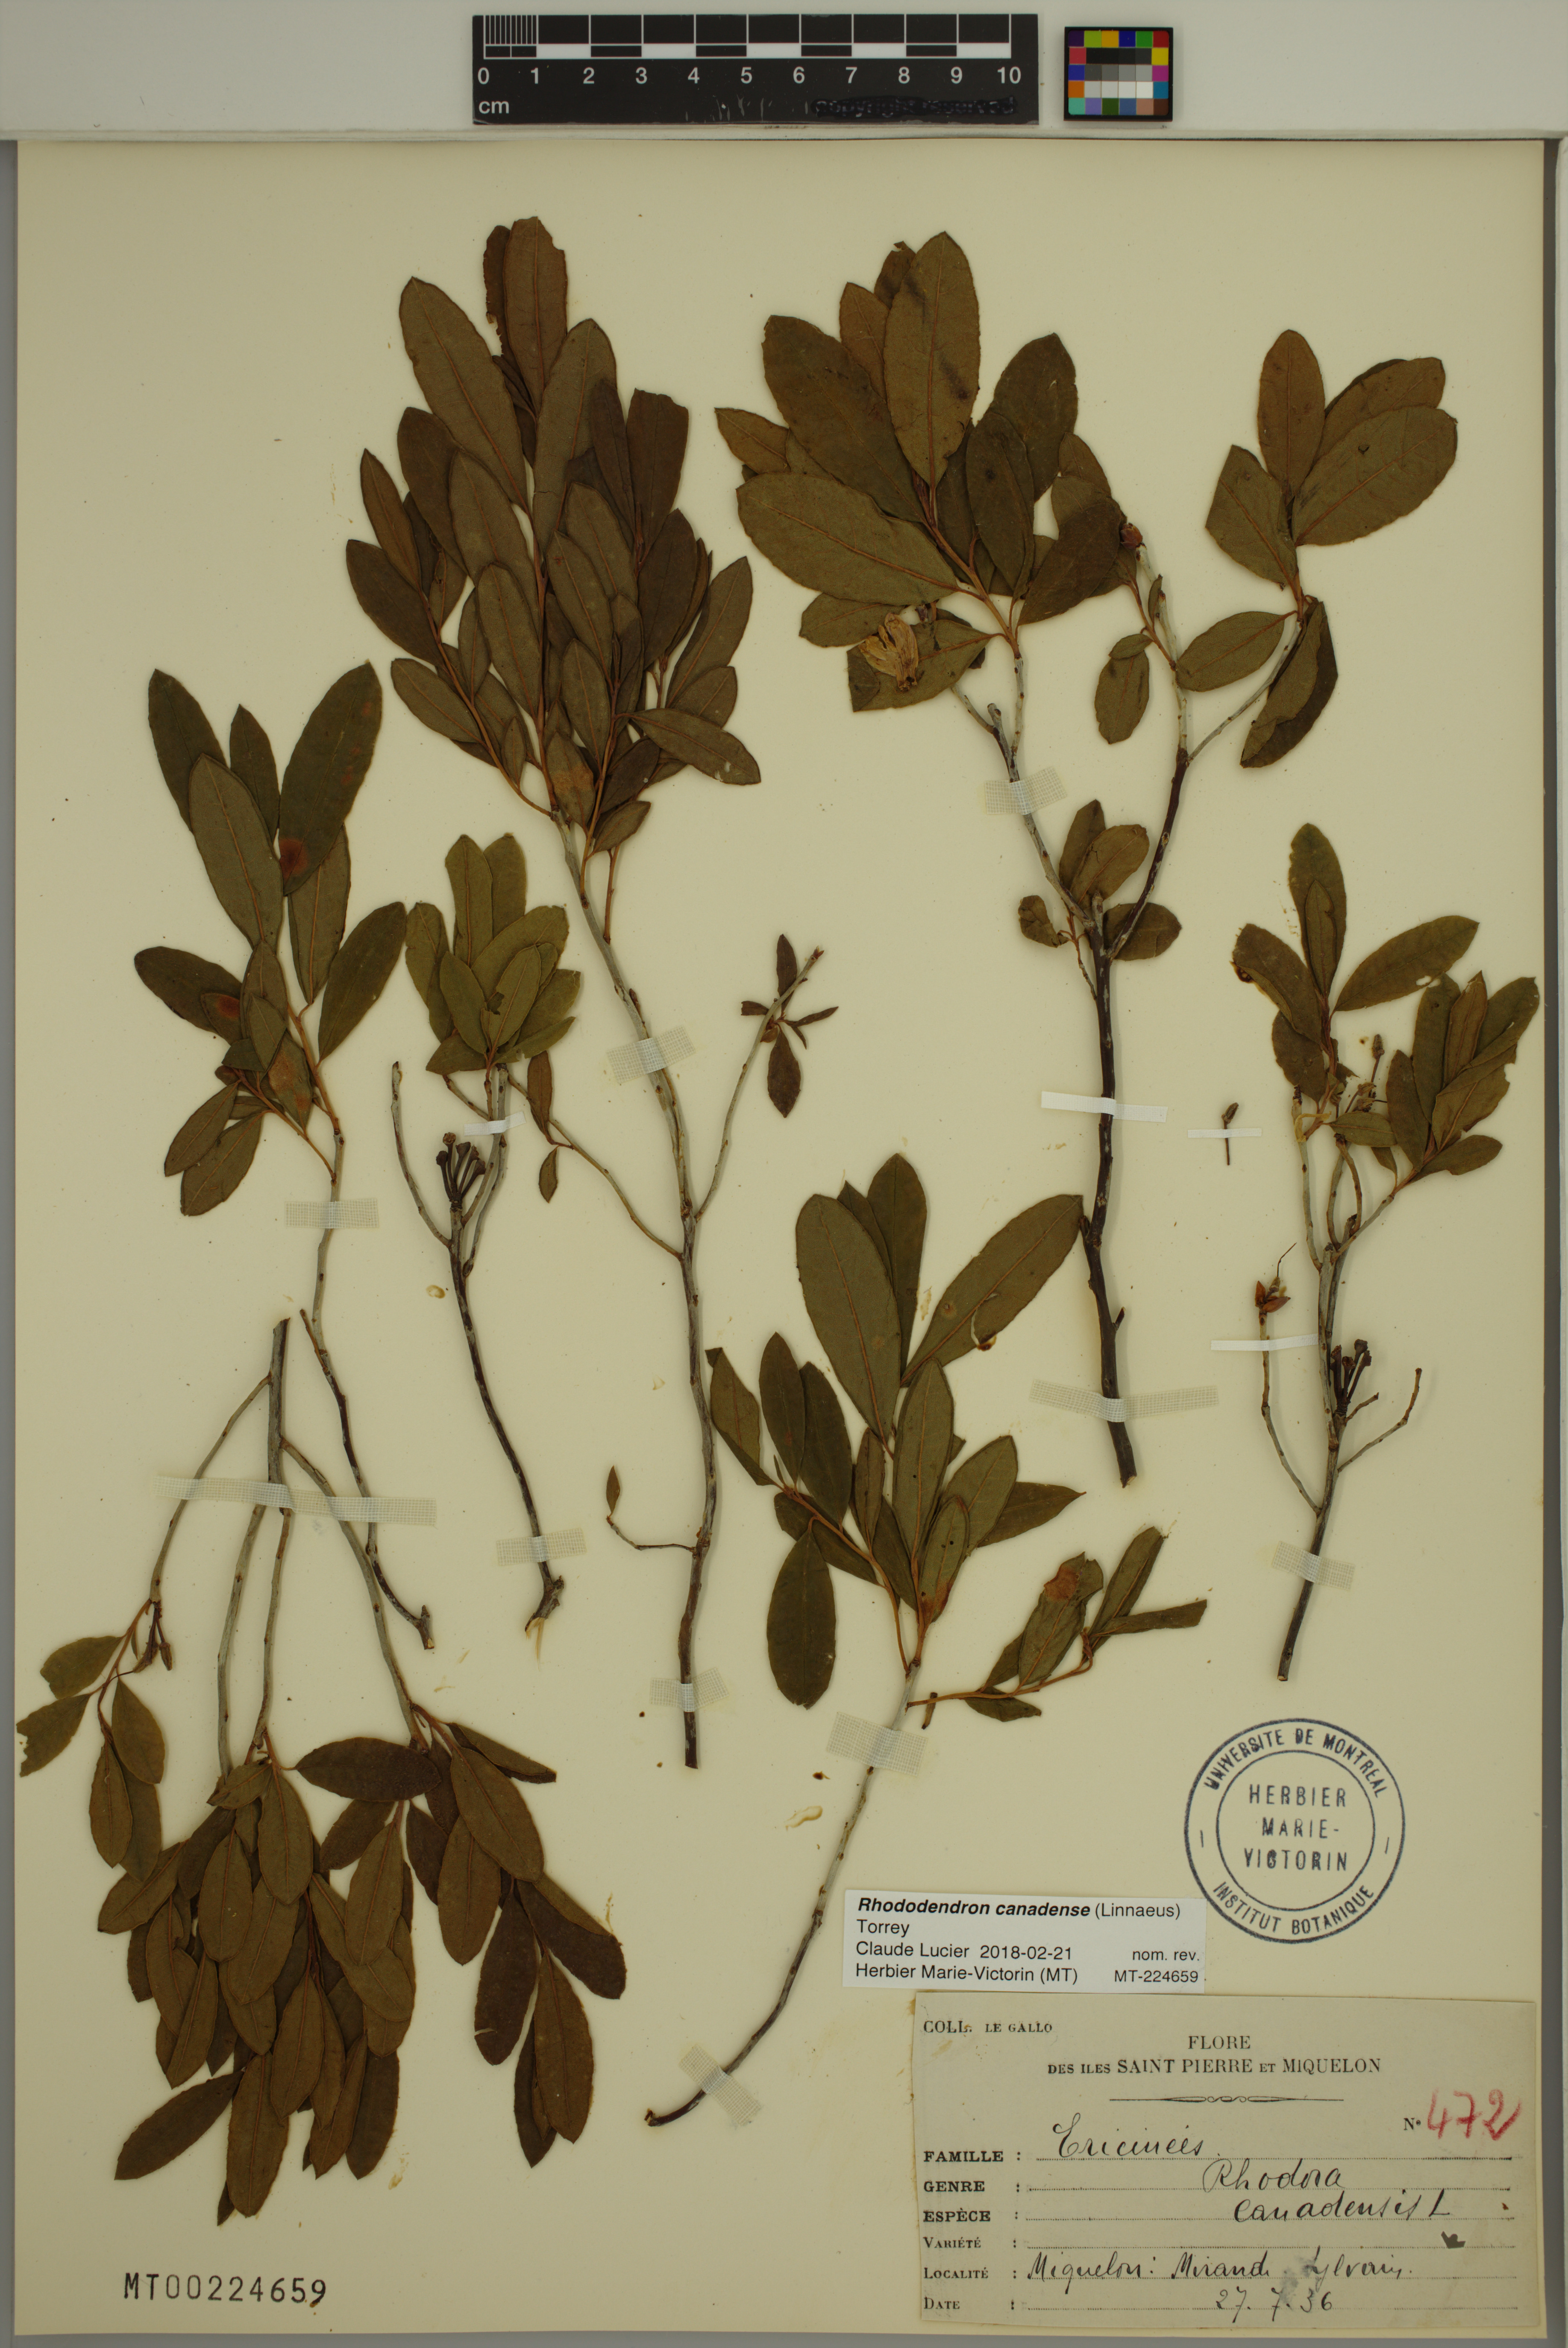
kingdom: Plantae
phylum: Tracheophyta
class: Magnoliopsida
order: Ericales
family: Ericaceae
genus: Rhododendron
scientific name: Rhododendron canadense
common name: Rhodora
